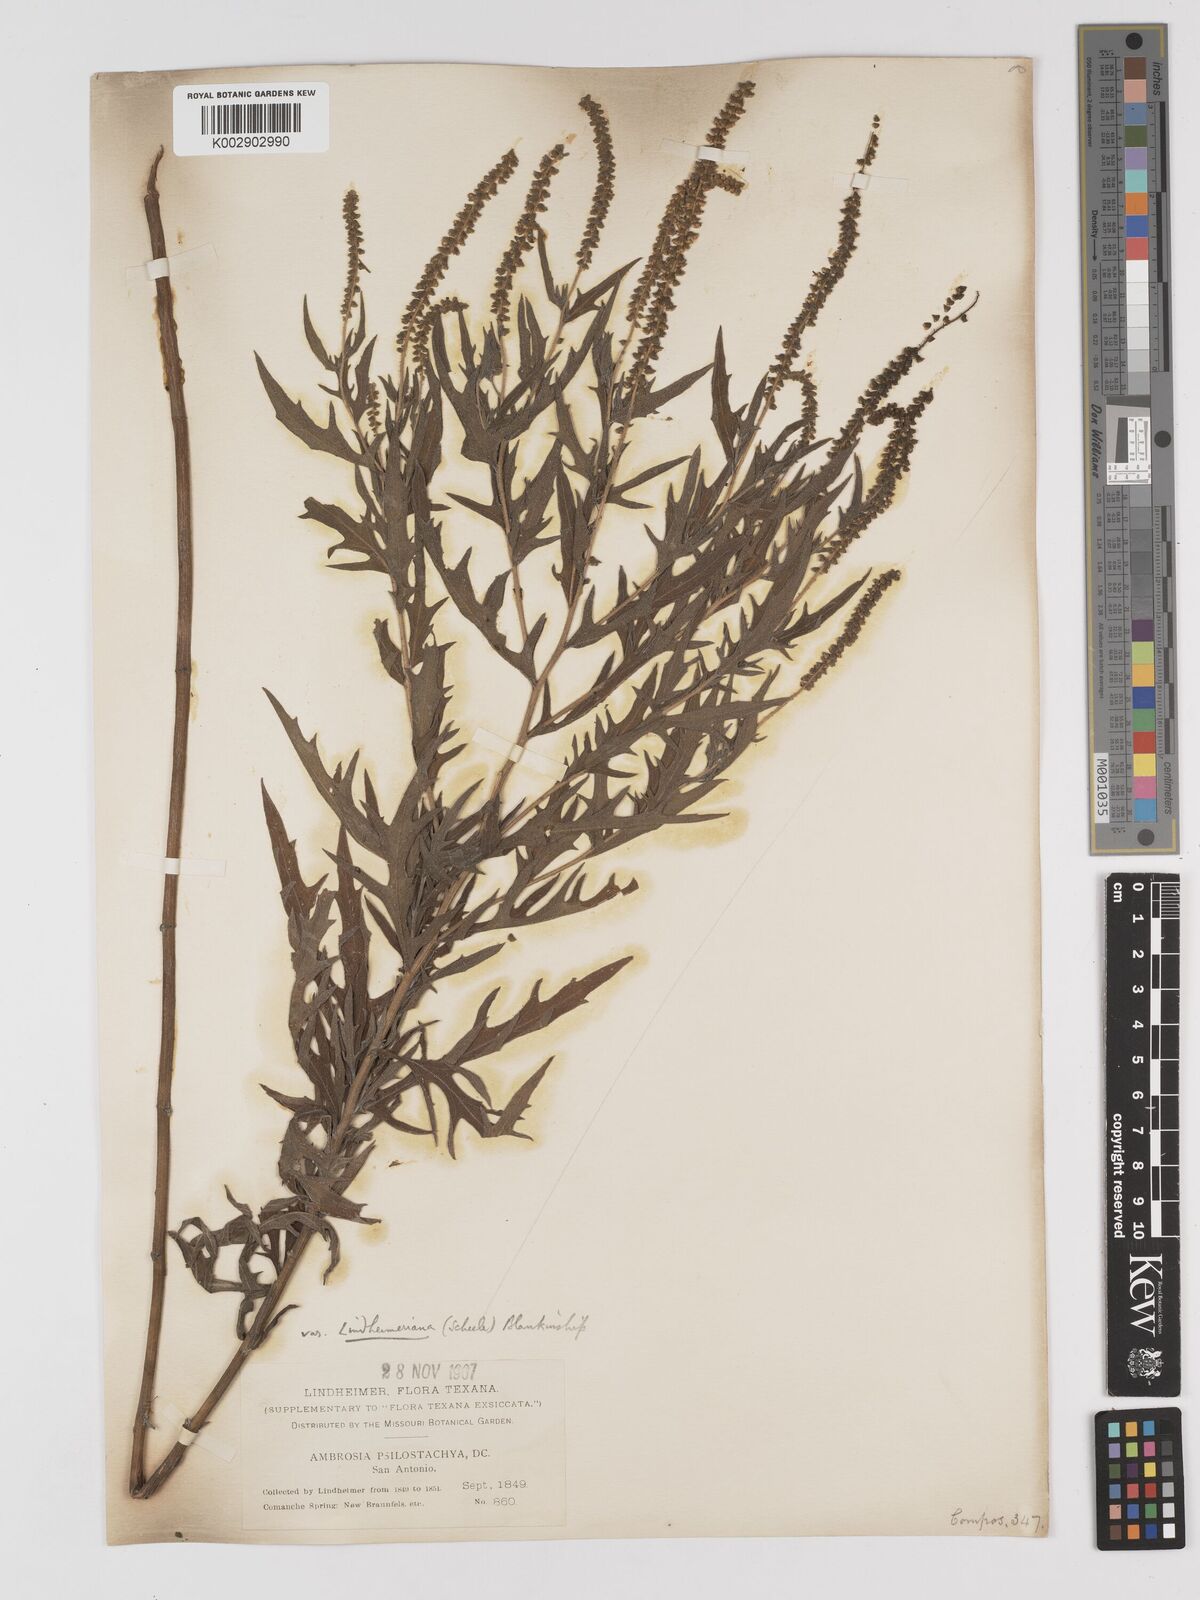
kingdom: Plantae
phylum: Tracheophyta
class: Magnoliopsida
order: Asterales
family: Asteraceae
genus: Ambrosia
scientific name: Ambrosia psilostachya
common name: Perennial ragweed
